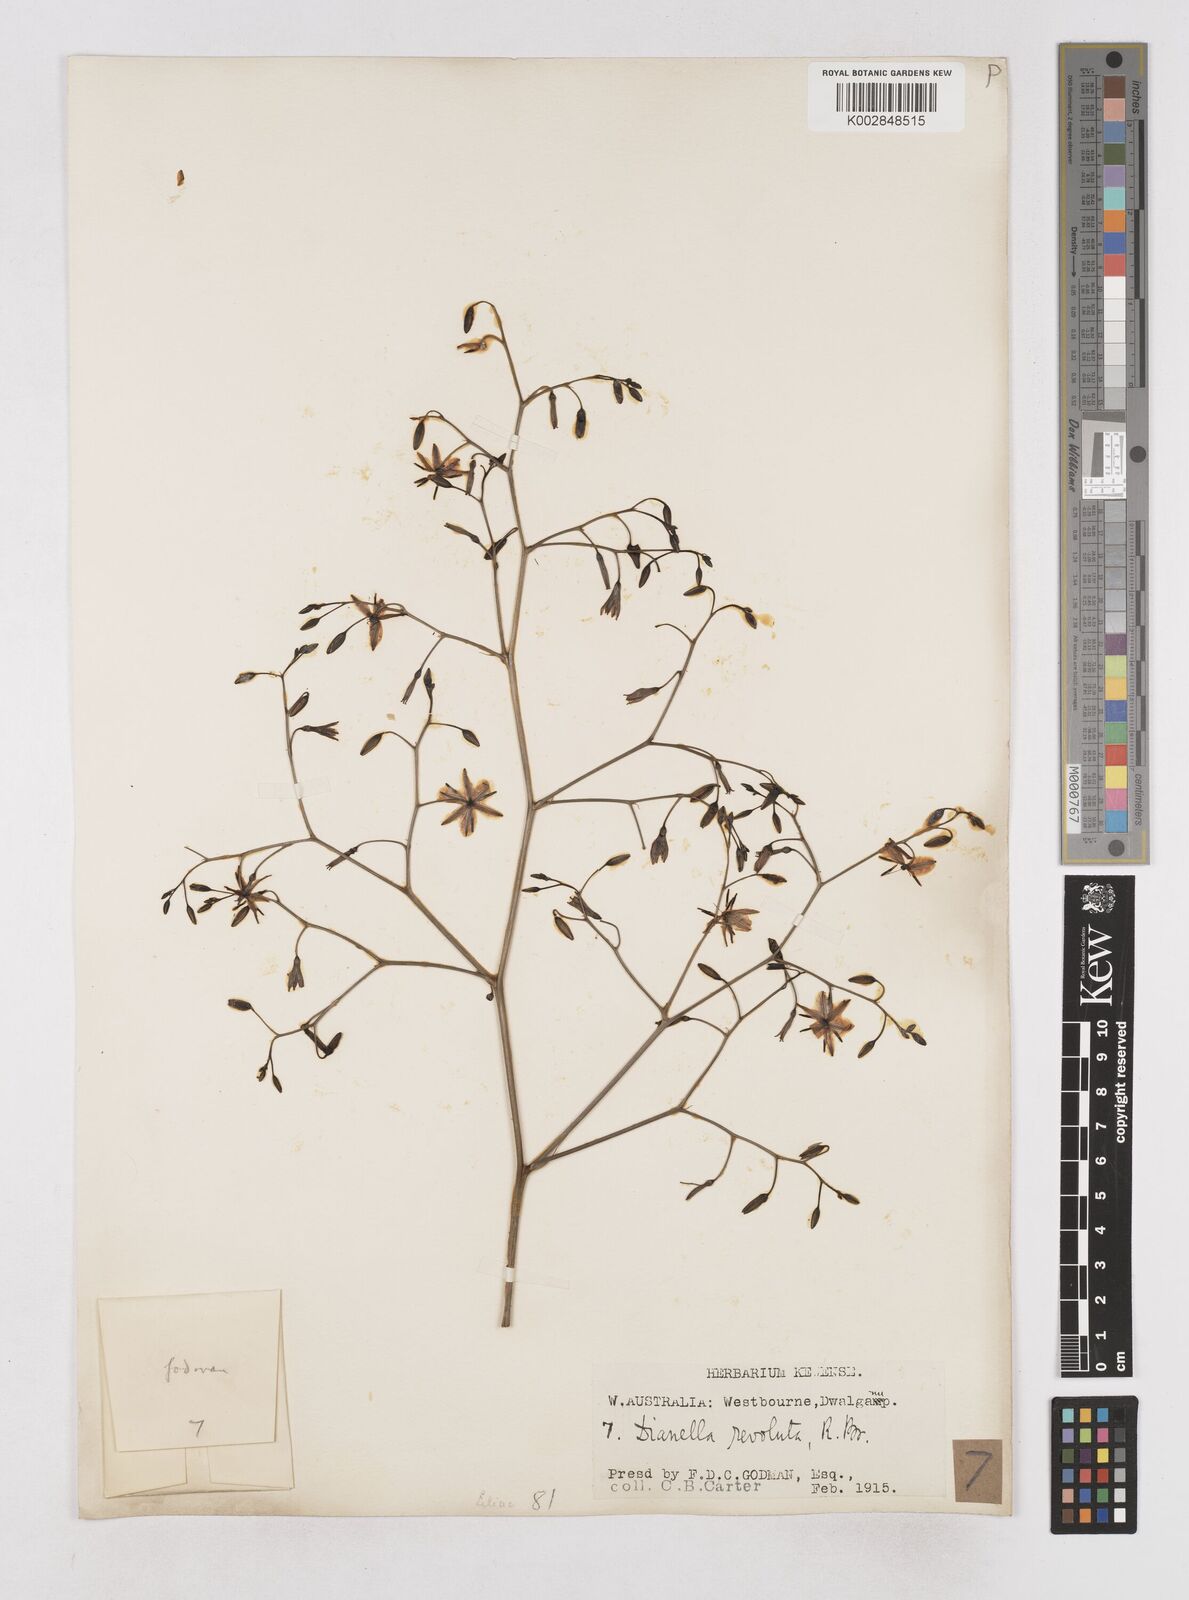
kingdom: Plantae
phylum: Tracheophyta
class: Liliopsida
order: Asparagales
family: Asphodelaceae
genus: Dianella
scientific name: Dianella revoluta
